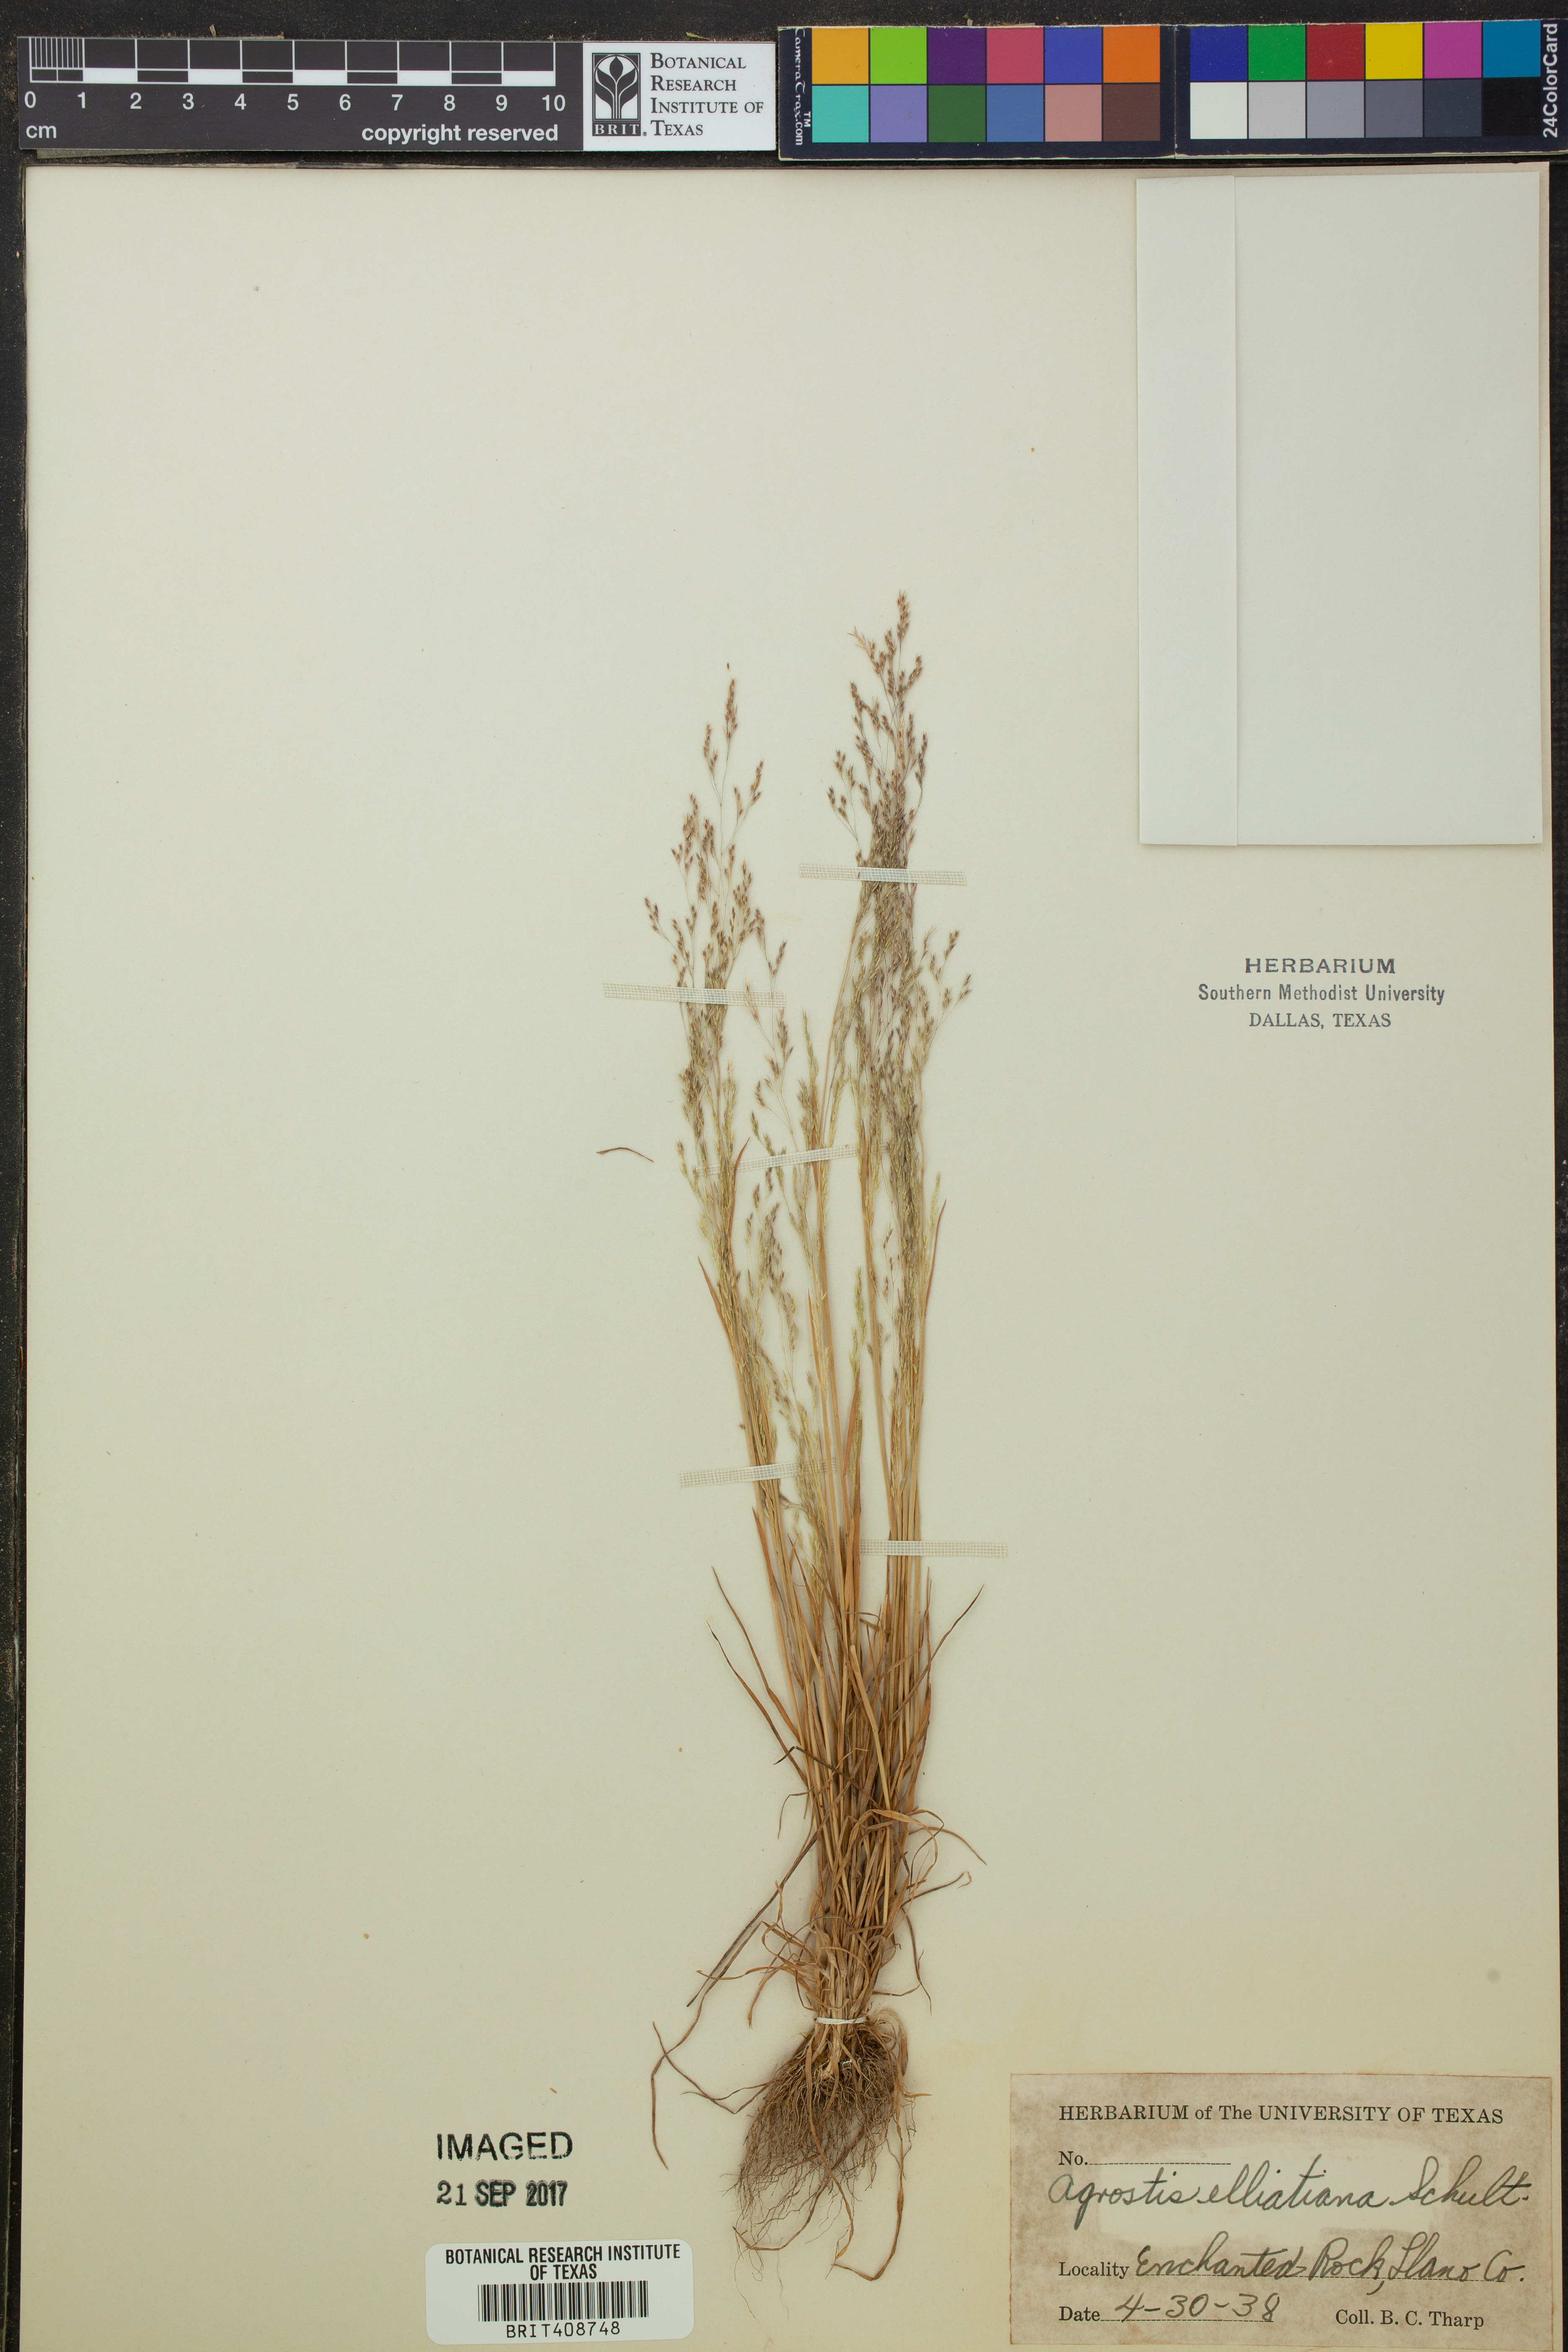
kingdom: Plantae
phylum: Tracheophyta
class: Liliopsida
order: Poales
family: Poaceae
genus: Agrostis
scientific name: Agrostis elliottiana
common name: Elliott's bent
